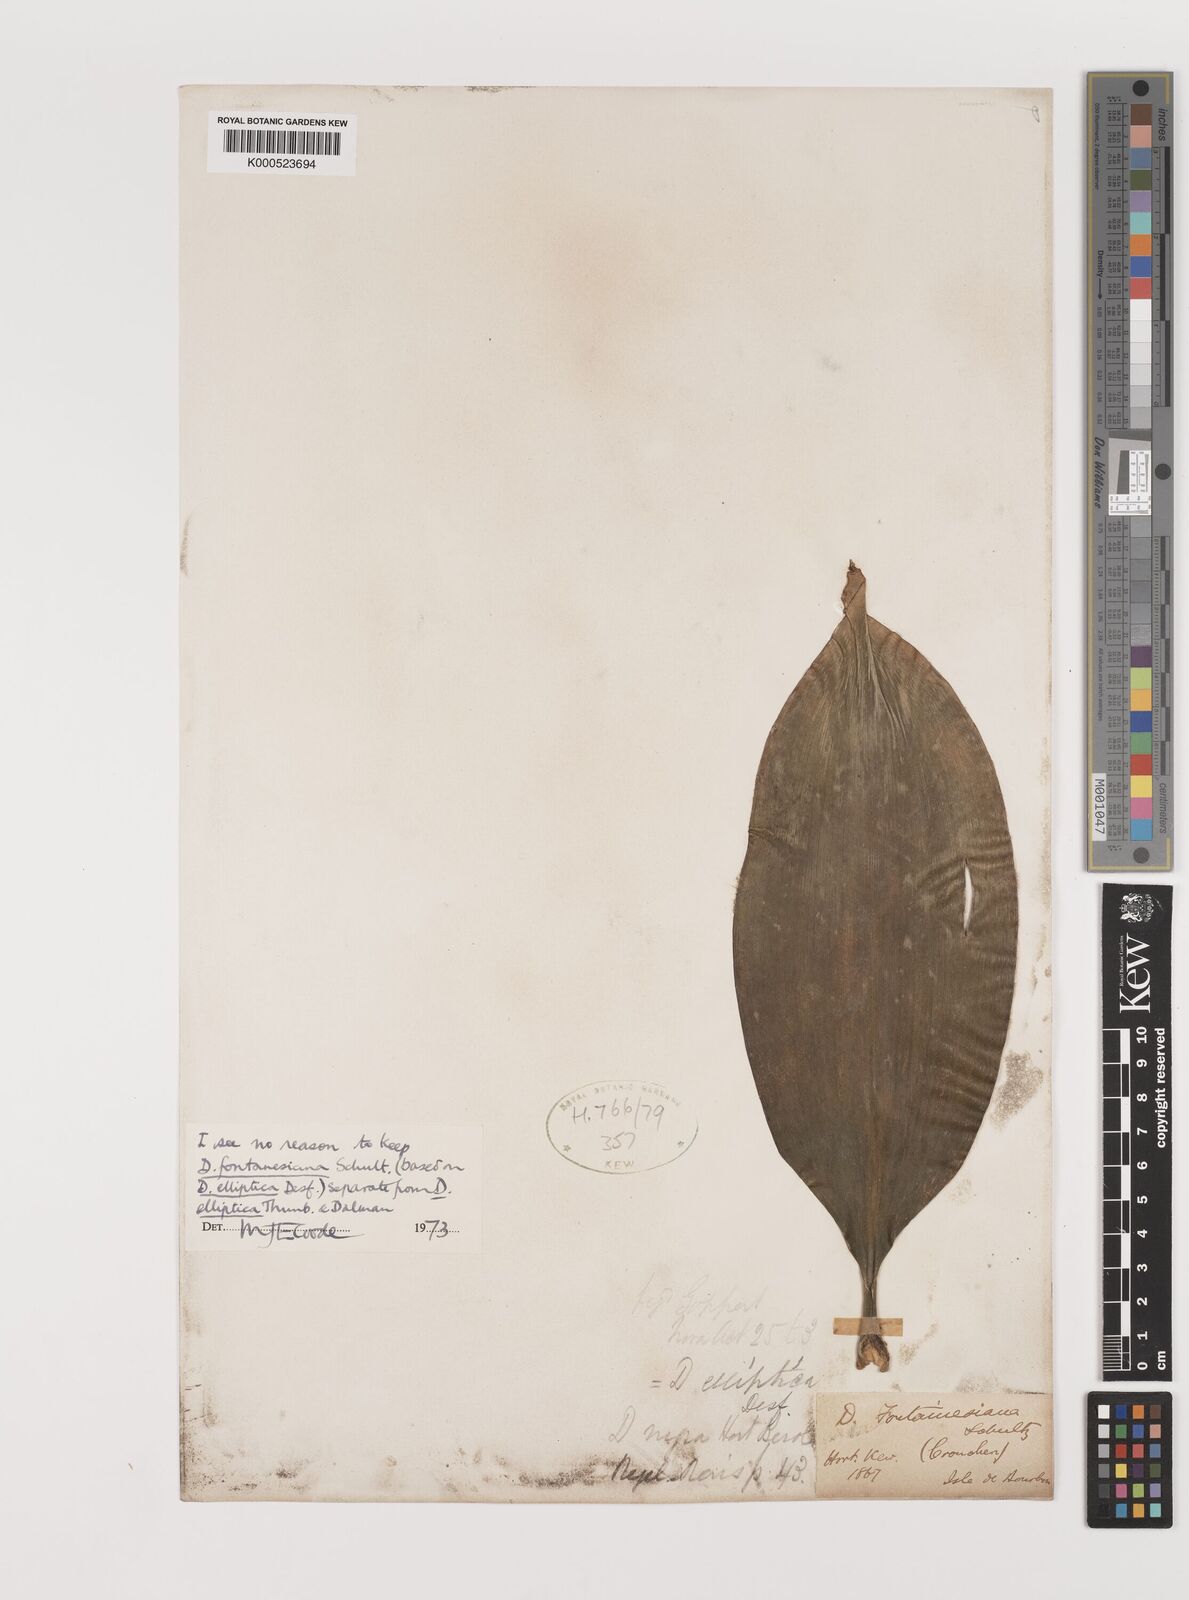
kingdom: Plantae
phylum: Tracheophyta
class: Liliopsida
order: Asparagales
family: Asparagaceae
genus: Dracaena
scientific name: Dracaena elliptica
